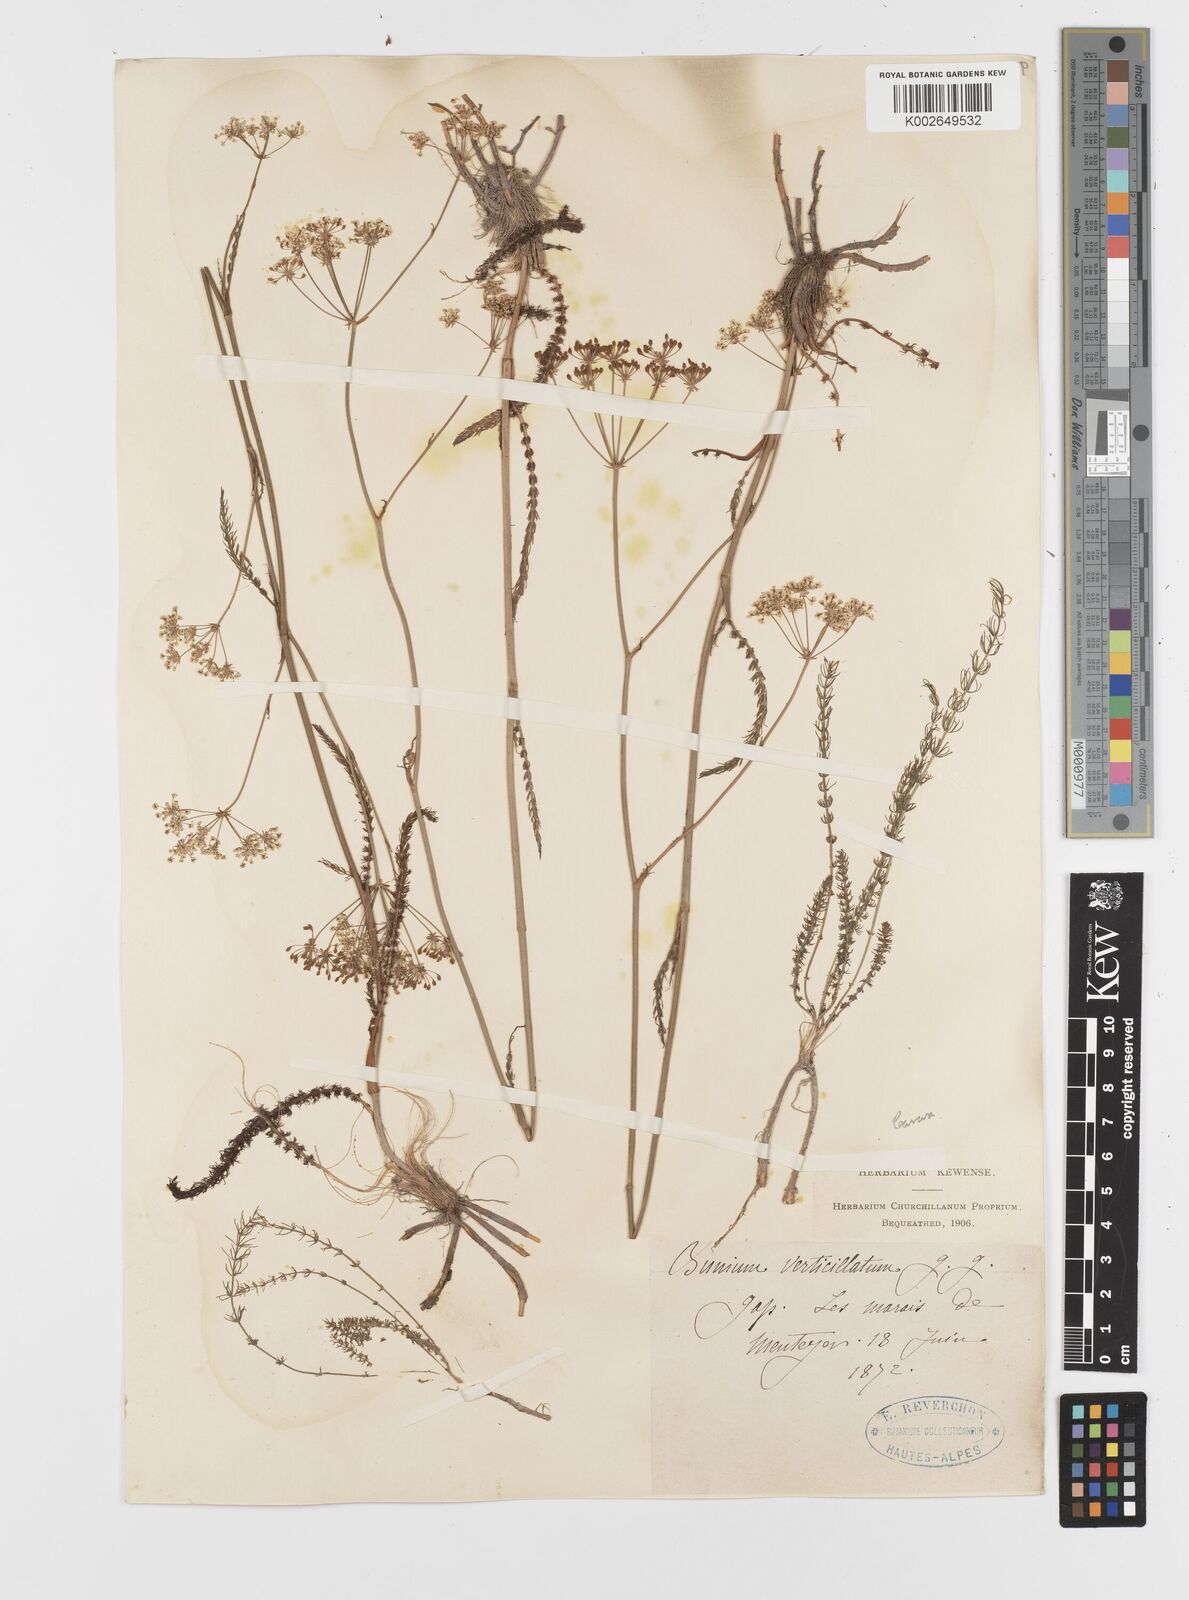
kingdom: Plantae
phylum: Tracheophyta
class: Magnoliopsida
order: Apiales
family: Apiaceae
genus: Trocdaris
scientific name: Trocdaris verticillatum
